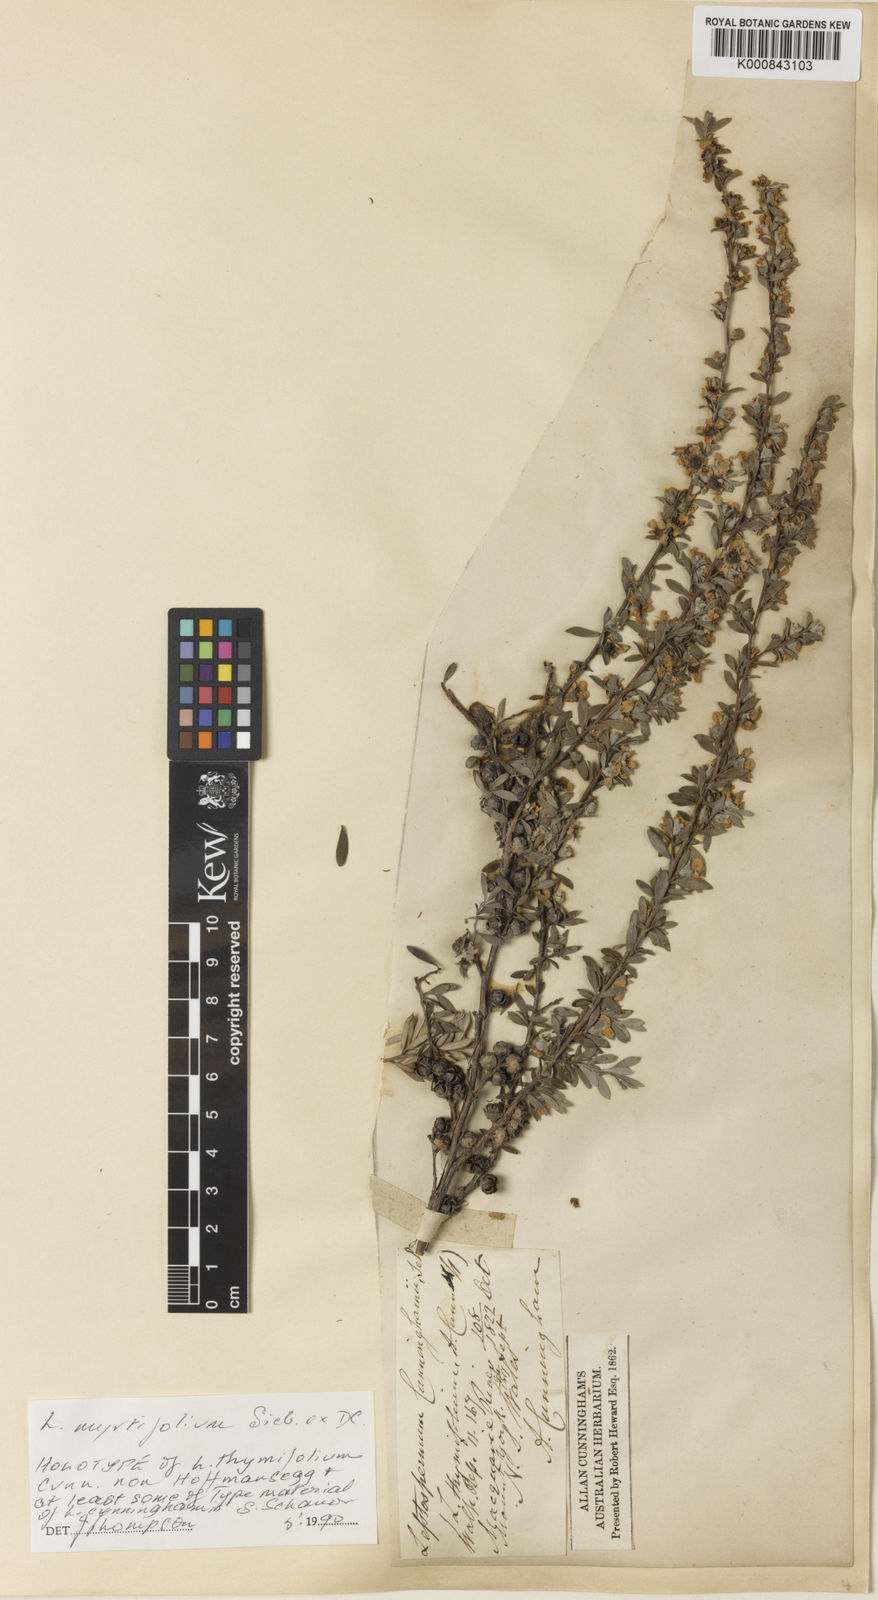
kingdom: Plantae
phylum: Tracheophyta
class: Magnoliopsida
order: Myrtales
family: Myrtaceae
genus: Leptospermum
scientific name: Leptospermum myrtifolium
